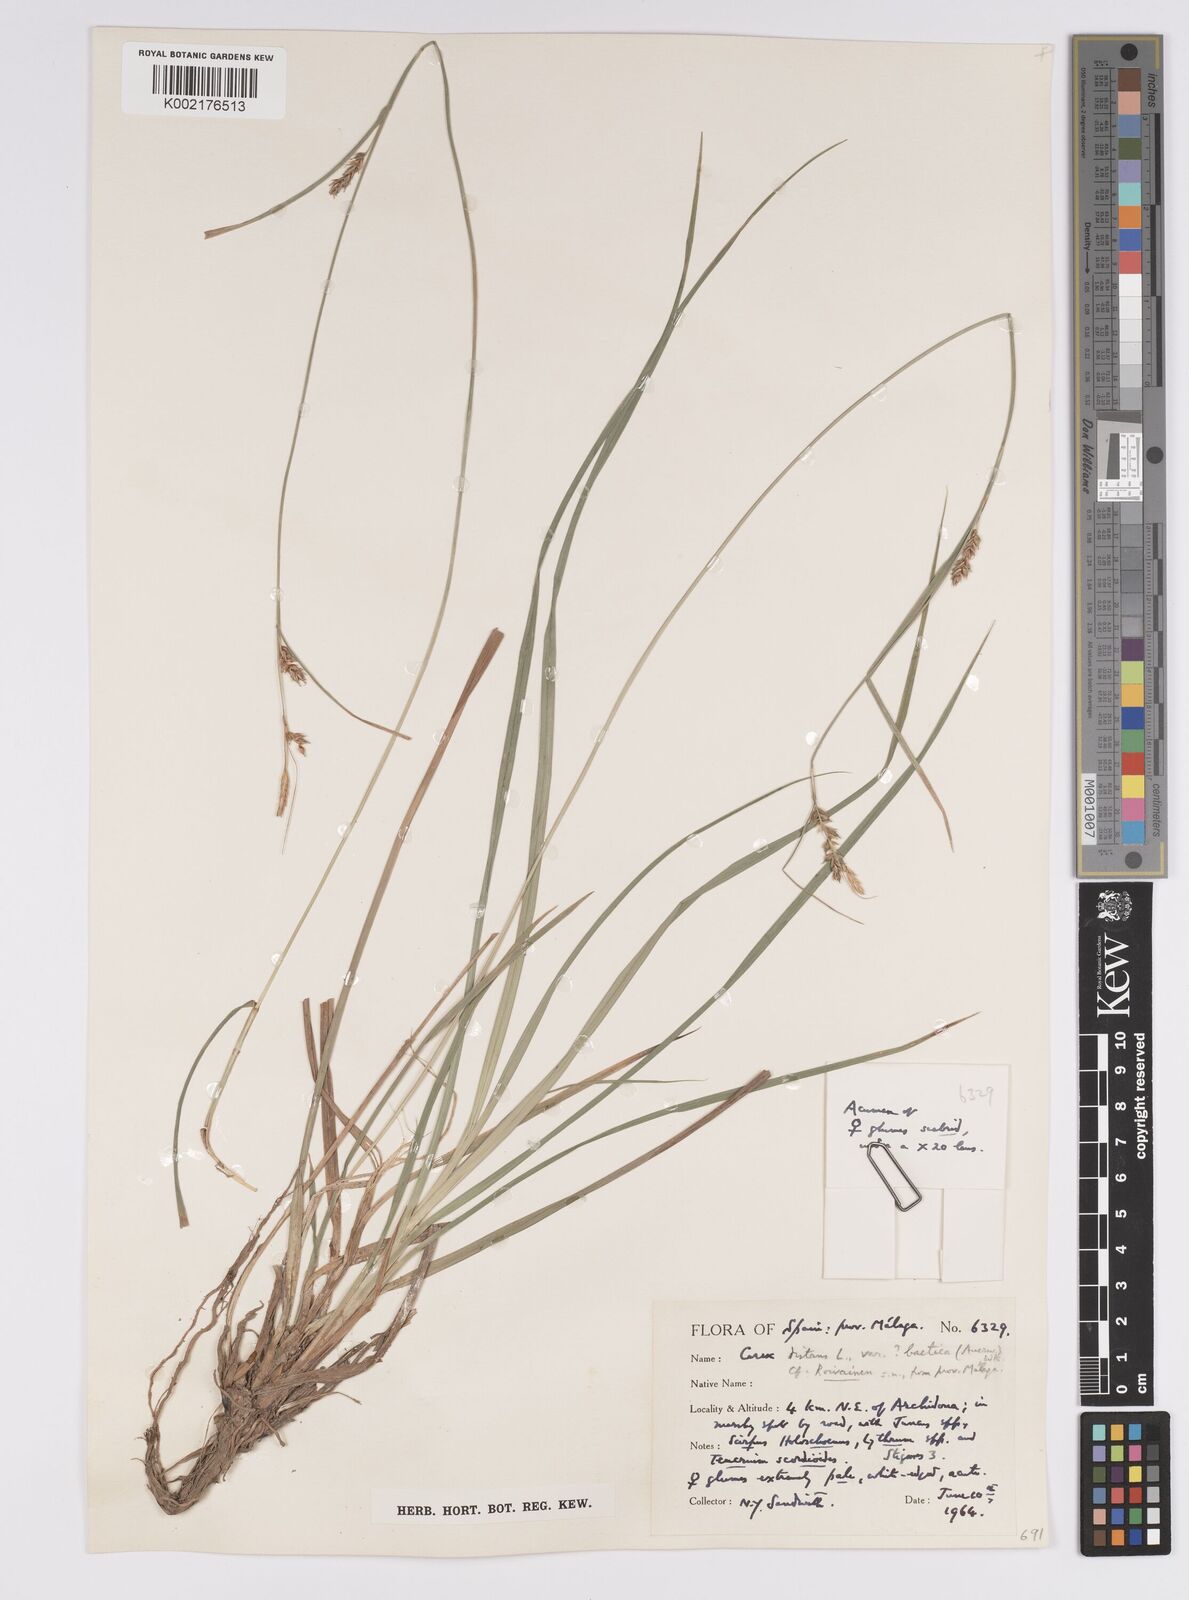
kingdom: Plantae
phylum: Tracheophyta
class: Liliopsida
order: Poales
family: Cyperaceae
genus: Carex
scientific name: Carex distans
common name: Distant sedge
